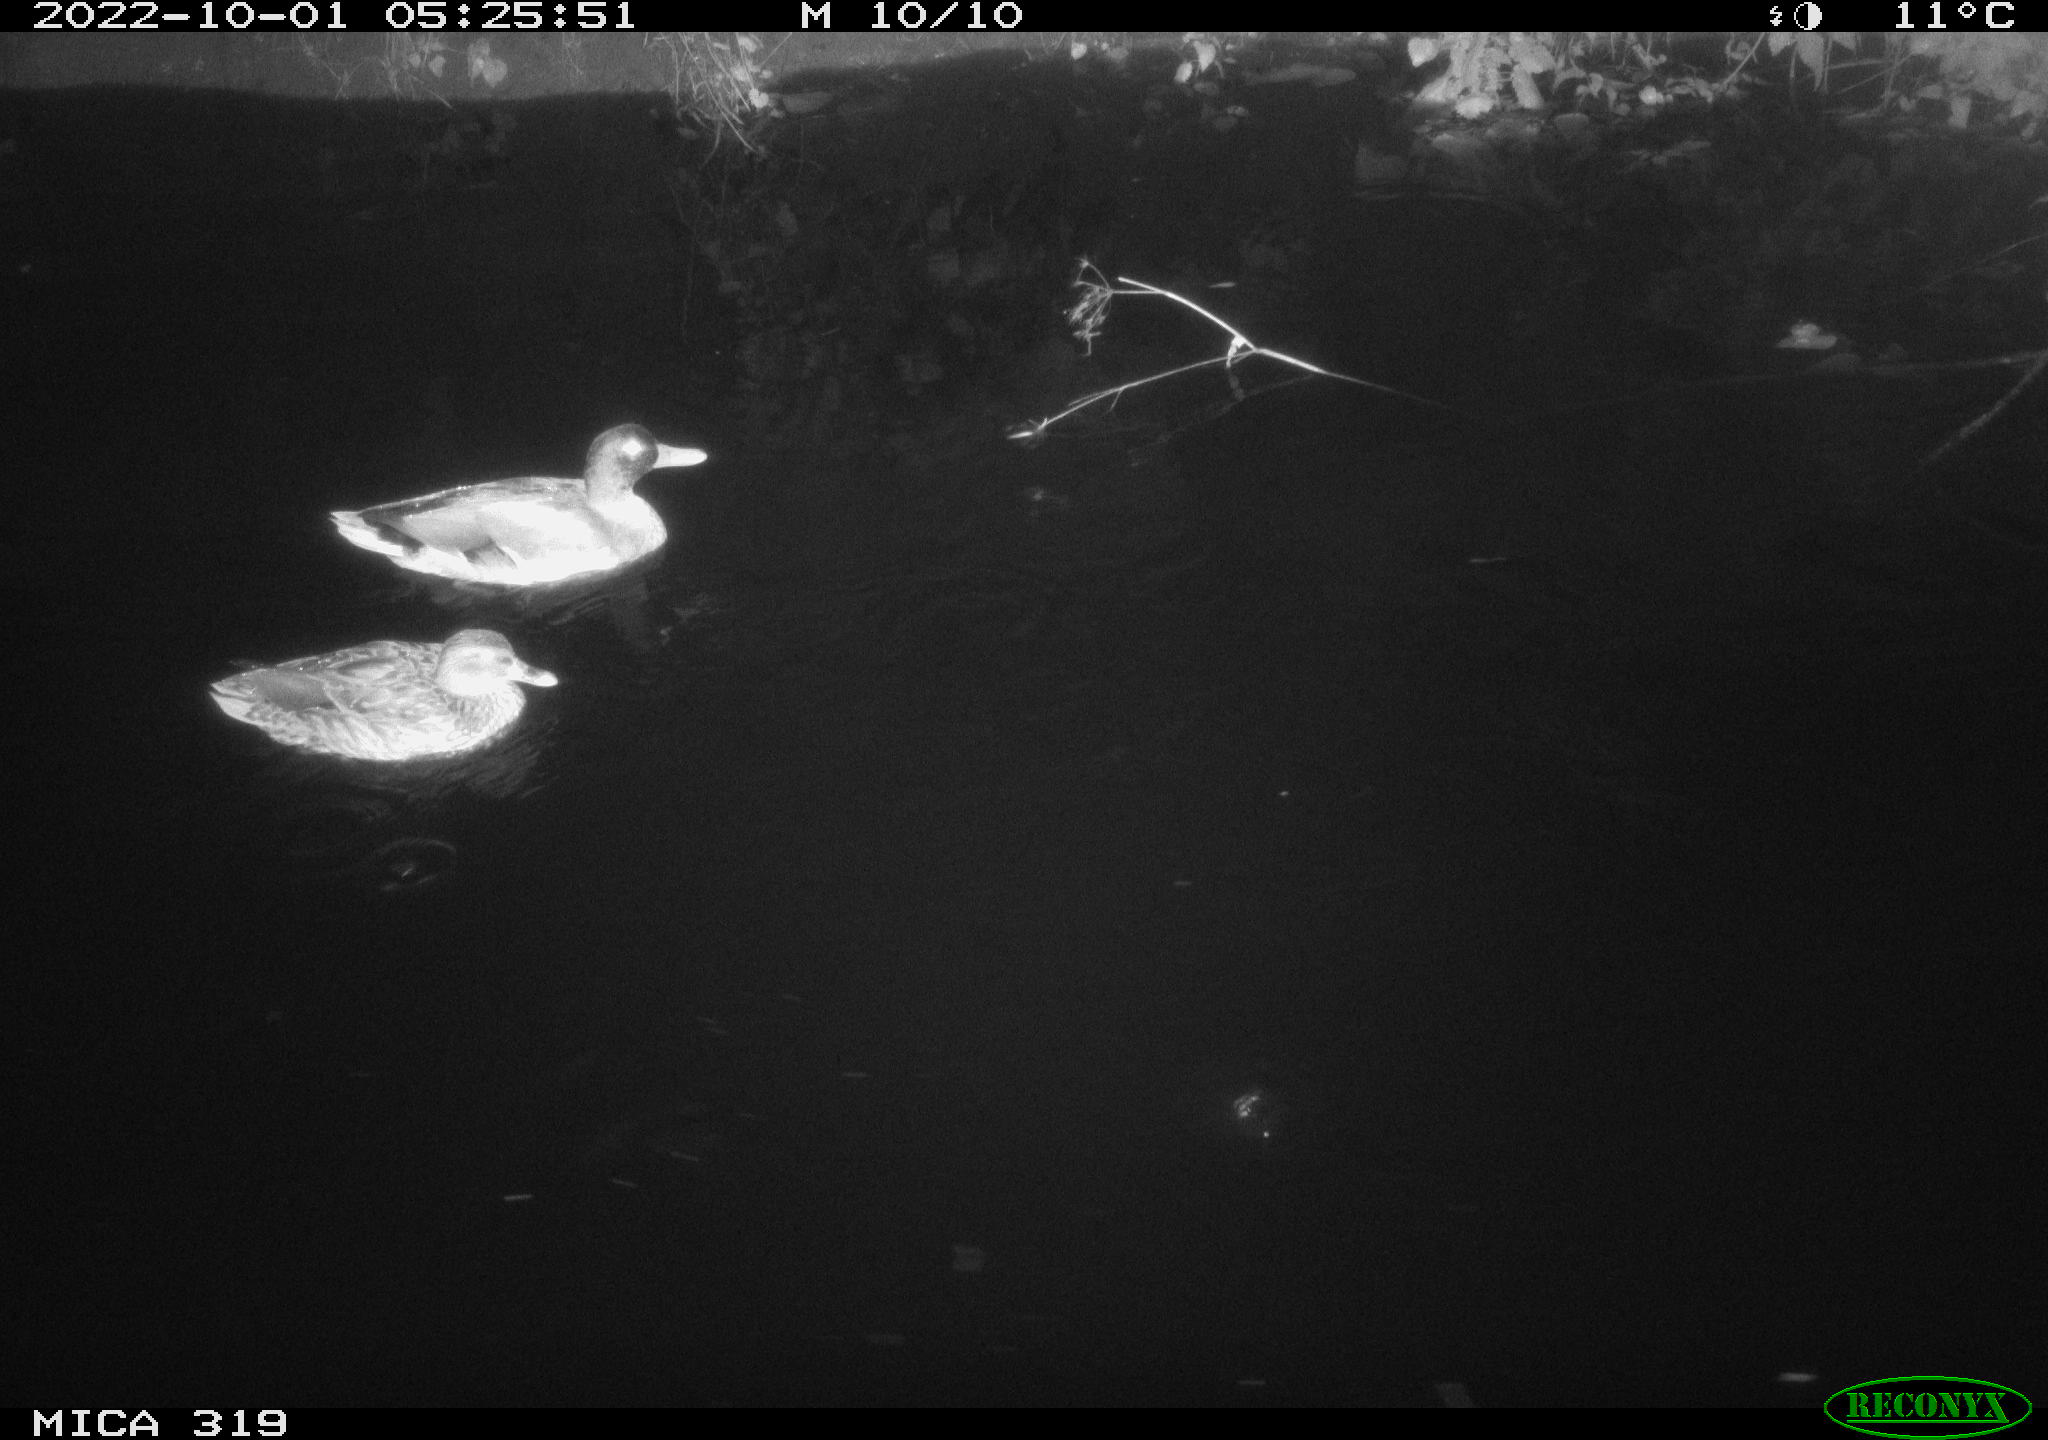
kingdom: Animalia
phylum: Chordata
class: Aves
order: Anseriformes
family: Anatidae
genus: Anas
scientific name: Anas
